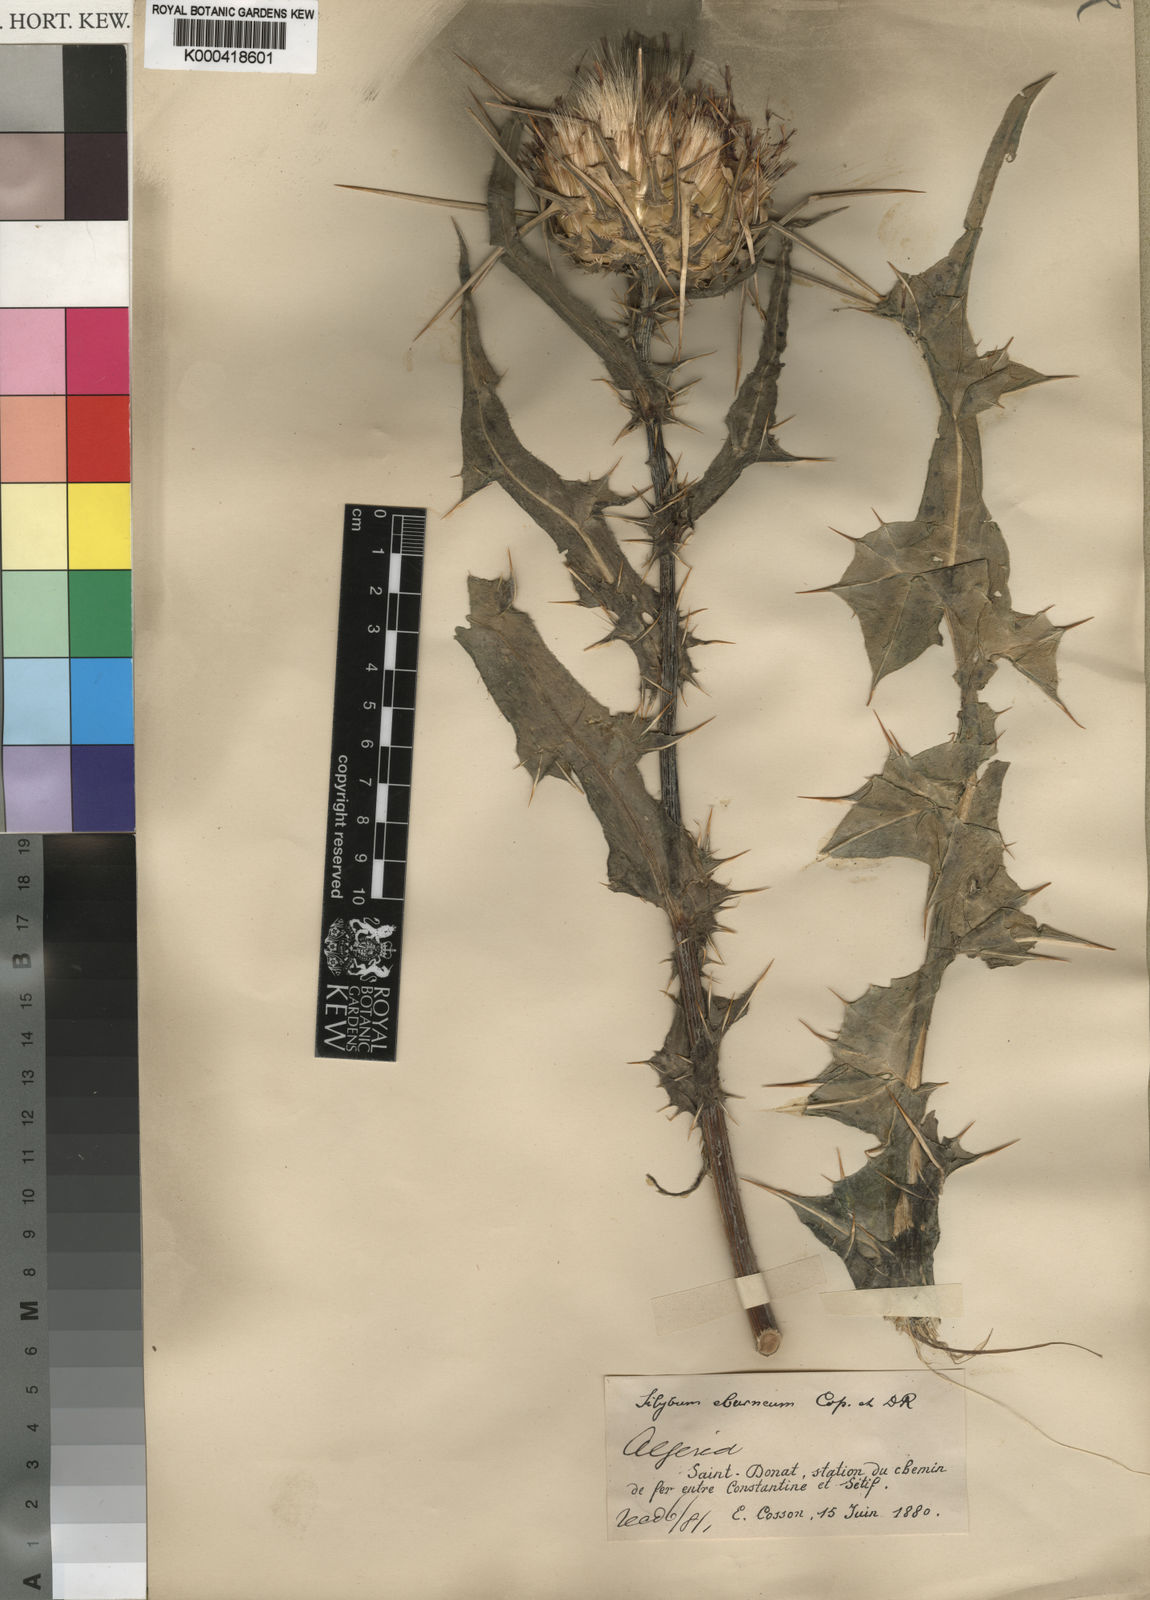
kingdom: Plantae
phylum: Tracheophyta
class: Magnoliopsida
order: Asterales
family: Asteraceae
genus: Silybum
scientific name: Silybum eburneum
